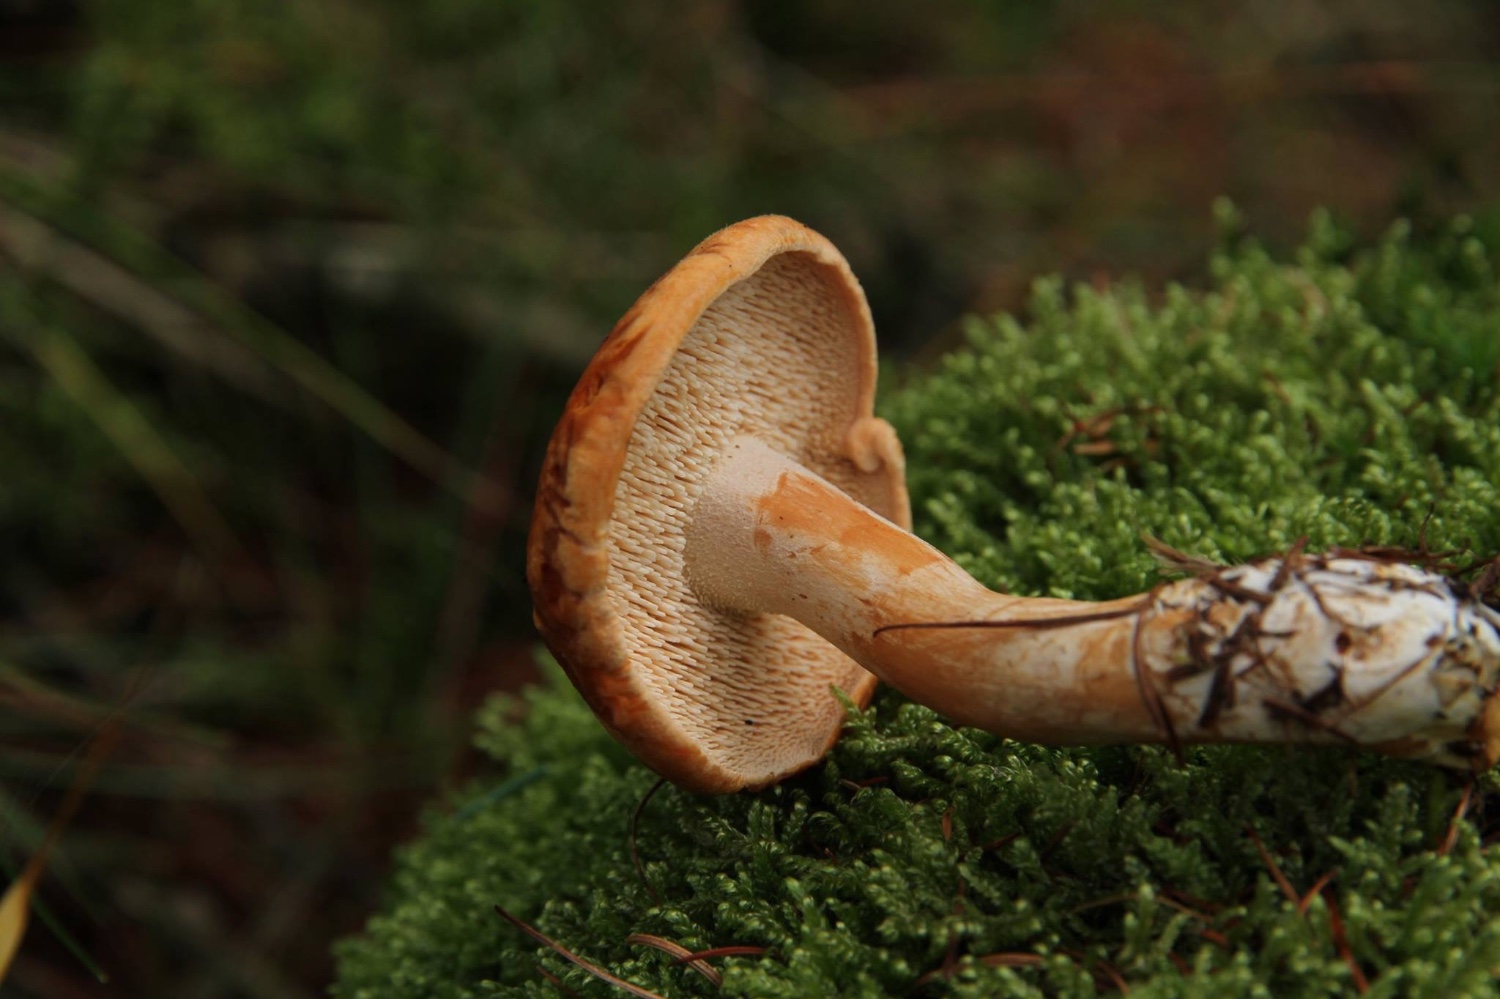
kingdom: Fungi
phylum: Basidiomycota
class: Agaricomycetes
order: Cantharellales
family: Hydnaceae
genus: Hydnum
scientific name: Hydnum rufescens
